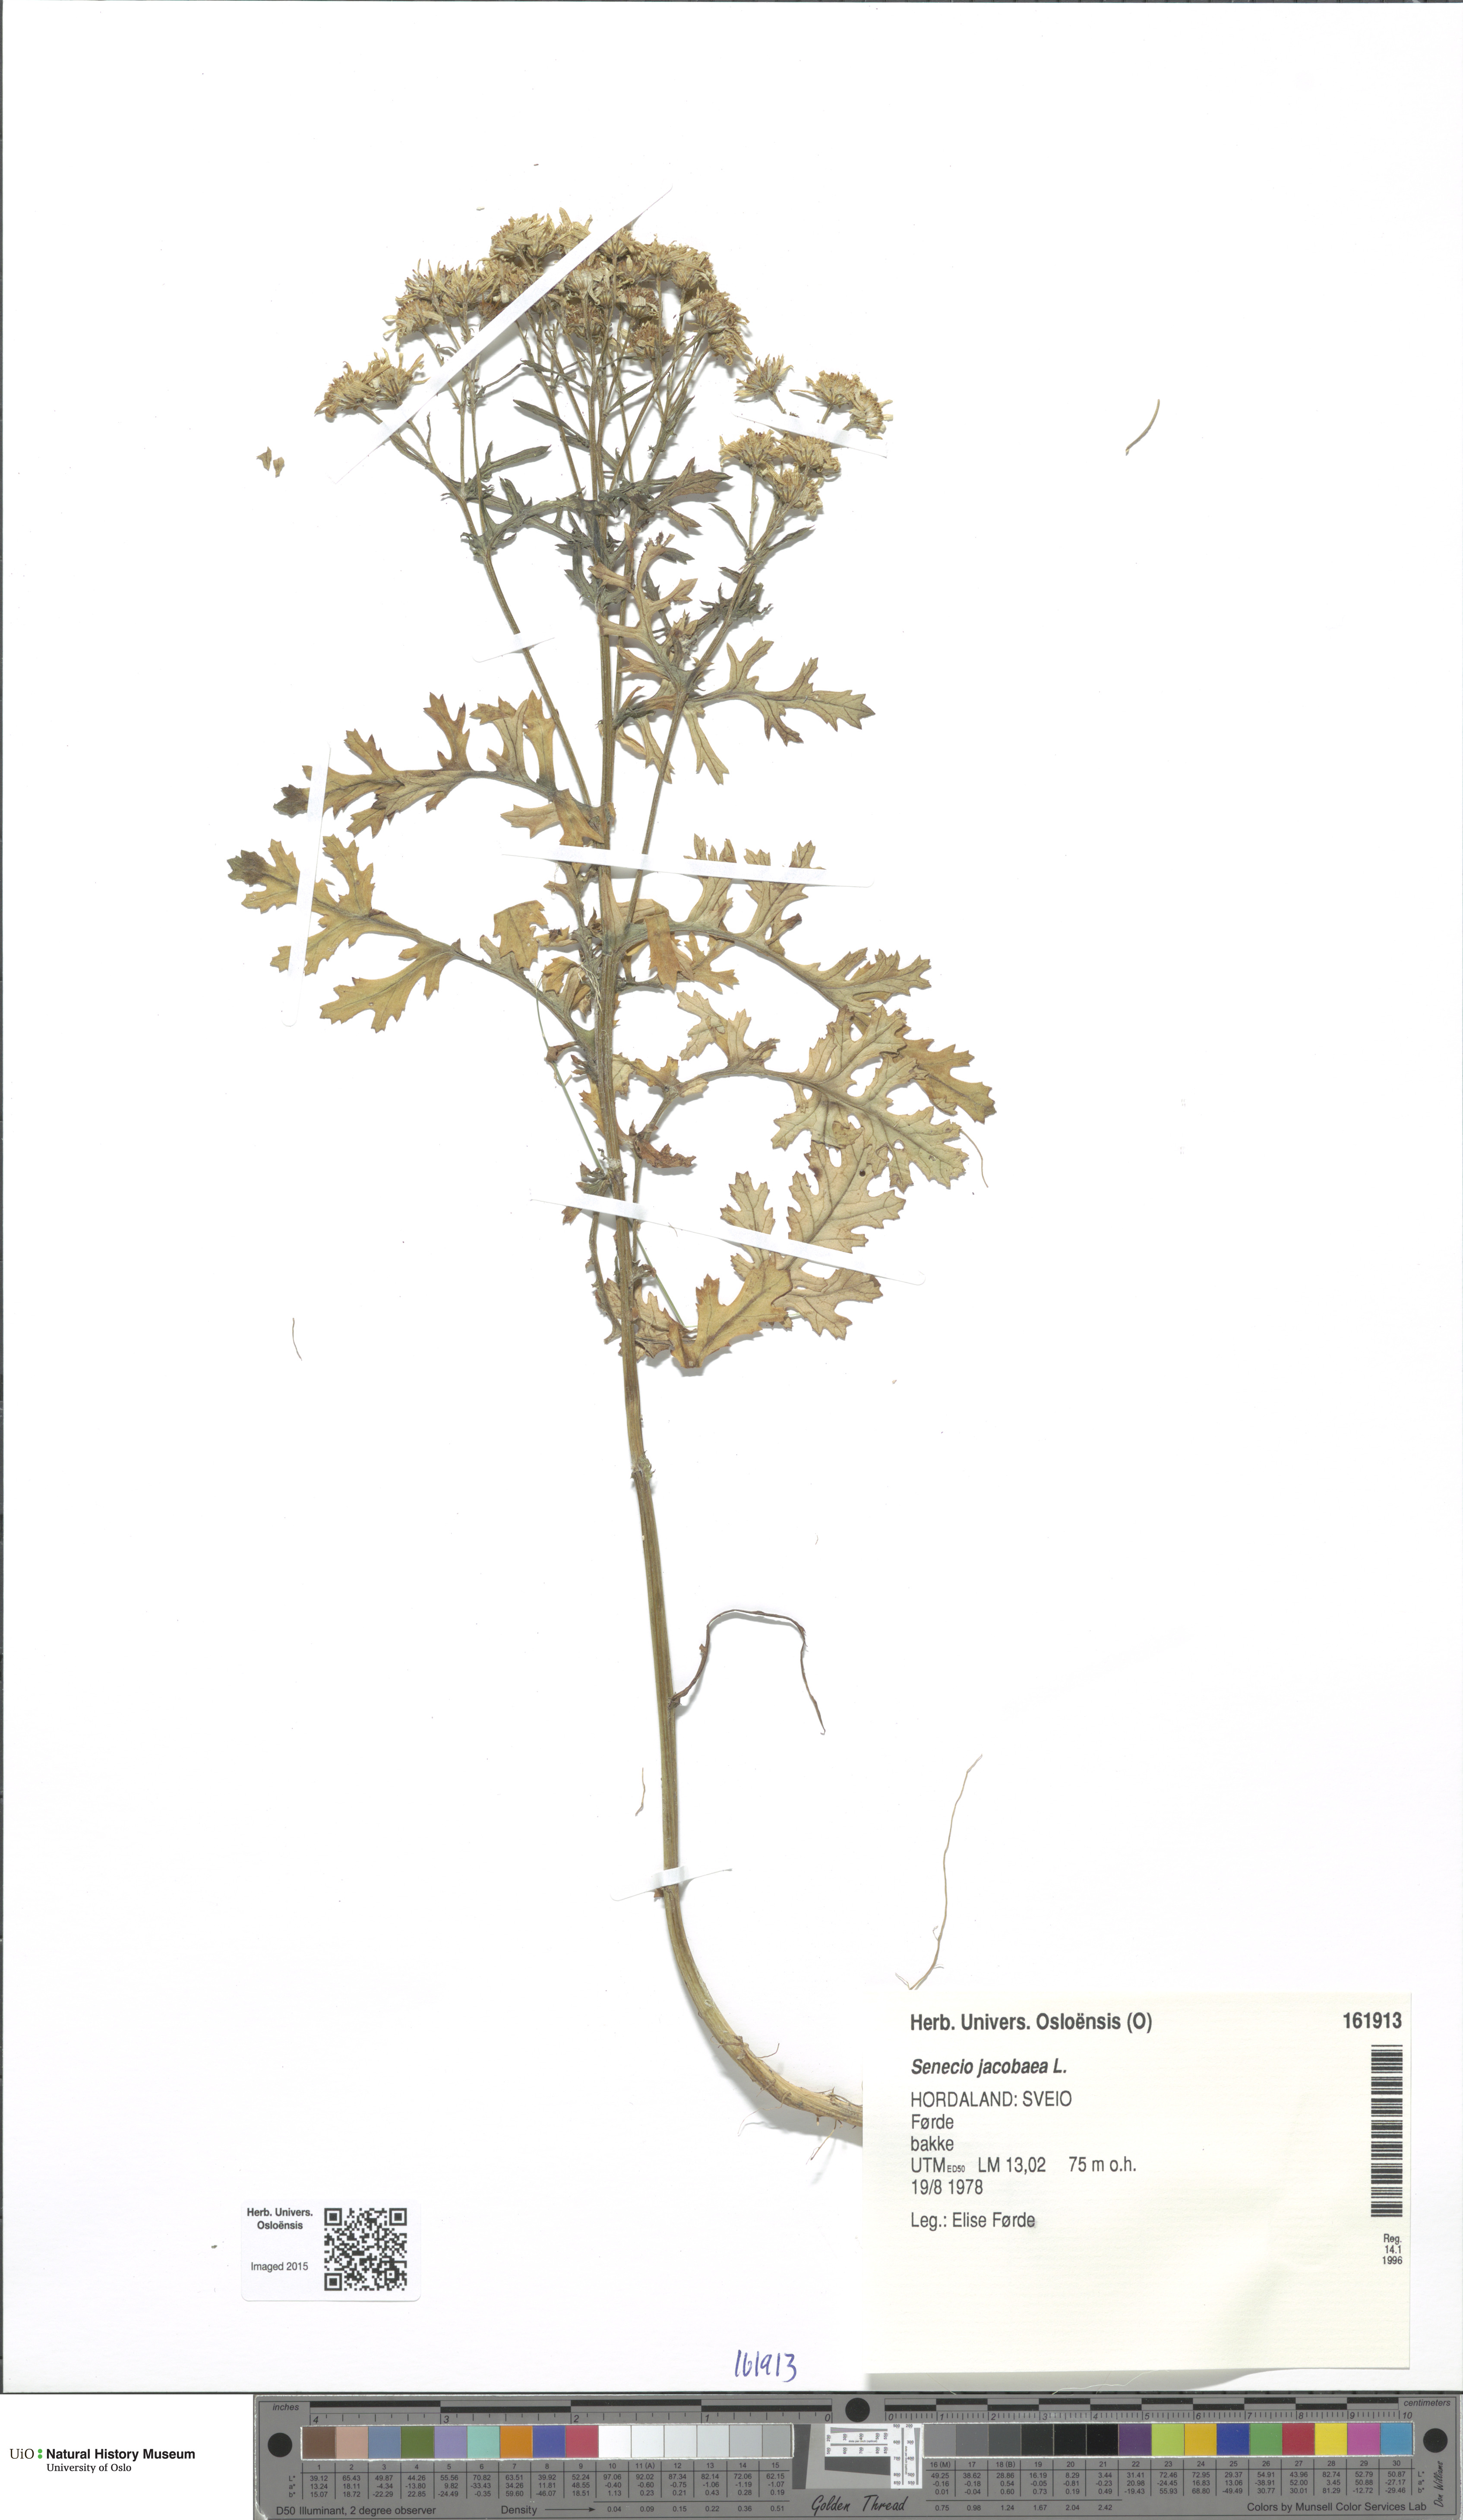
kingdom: Plantae
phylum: Tracheophyta
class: Magnoliopsida
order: Asterales
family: Asteraceae
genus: Jacobaea
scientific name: Jacobaea vulgaris
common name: Stinking willie
